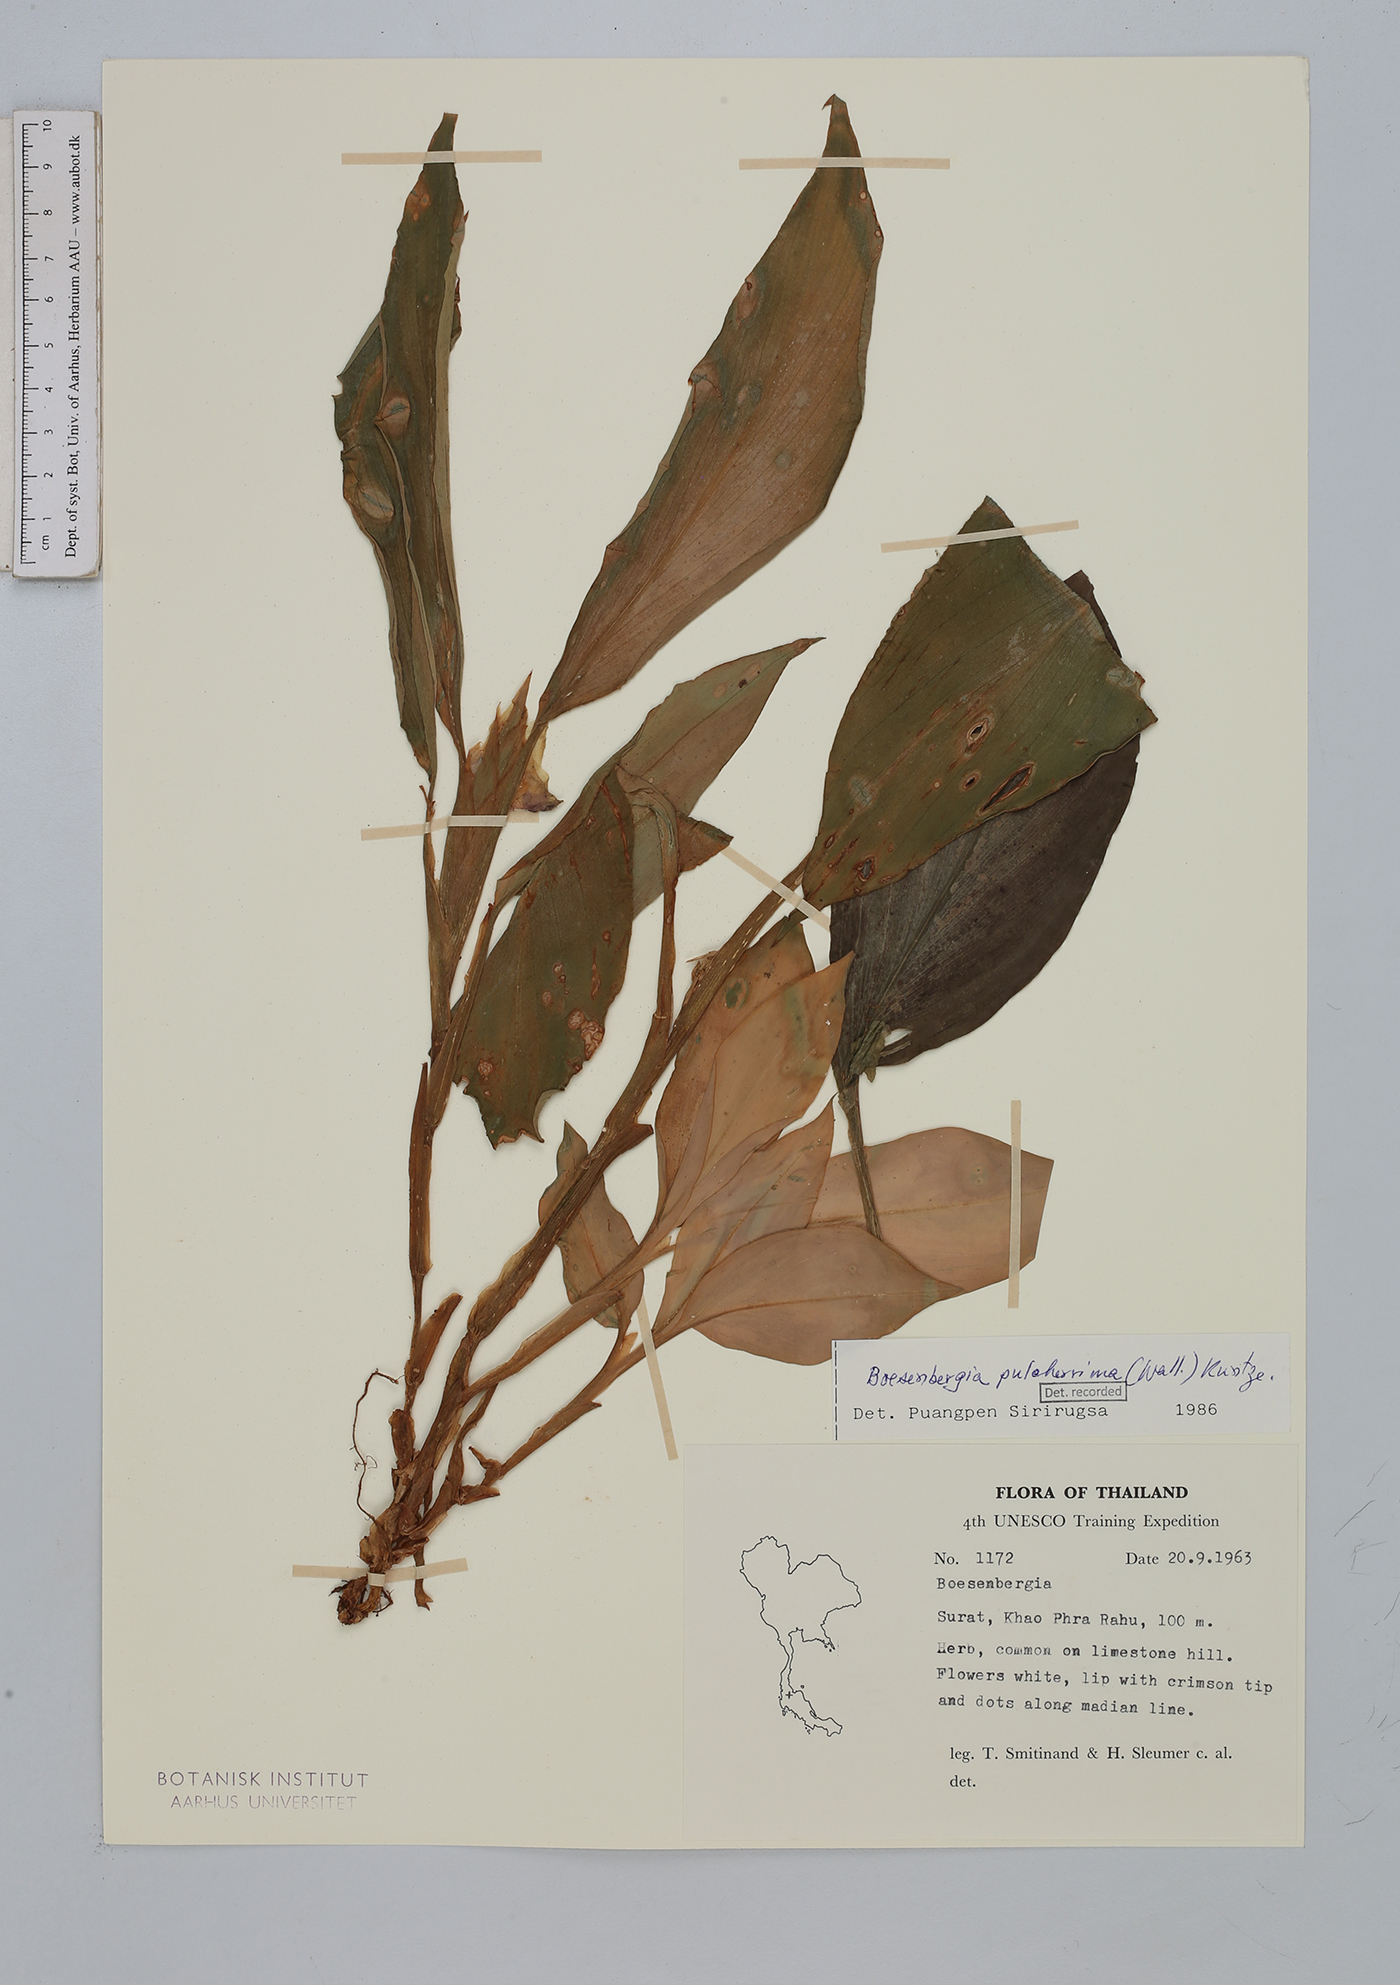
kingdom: Plantae
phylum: Tracheophyta
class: Liliopsida
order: Zingiberales
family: Zingiberaceae
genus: Boesenbergia
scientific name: Boesenbergia pulcherrima
